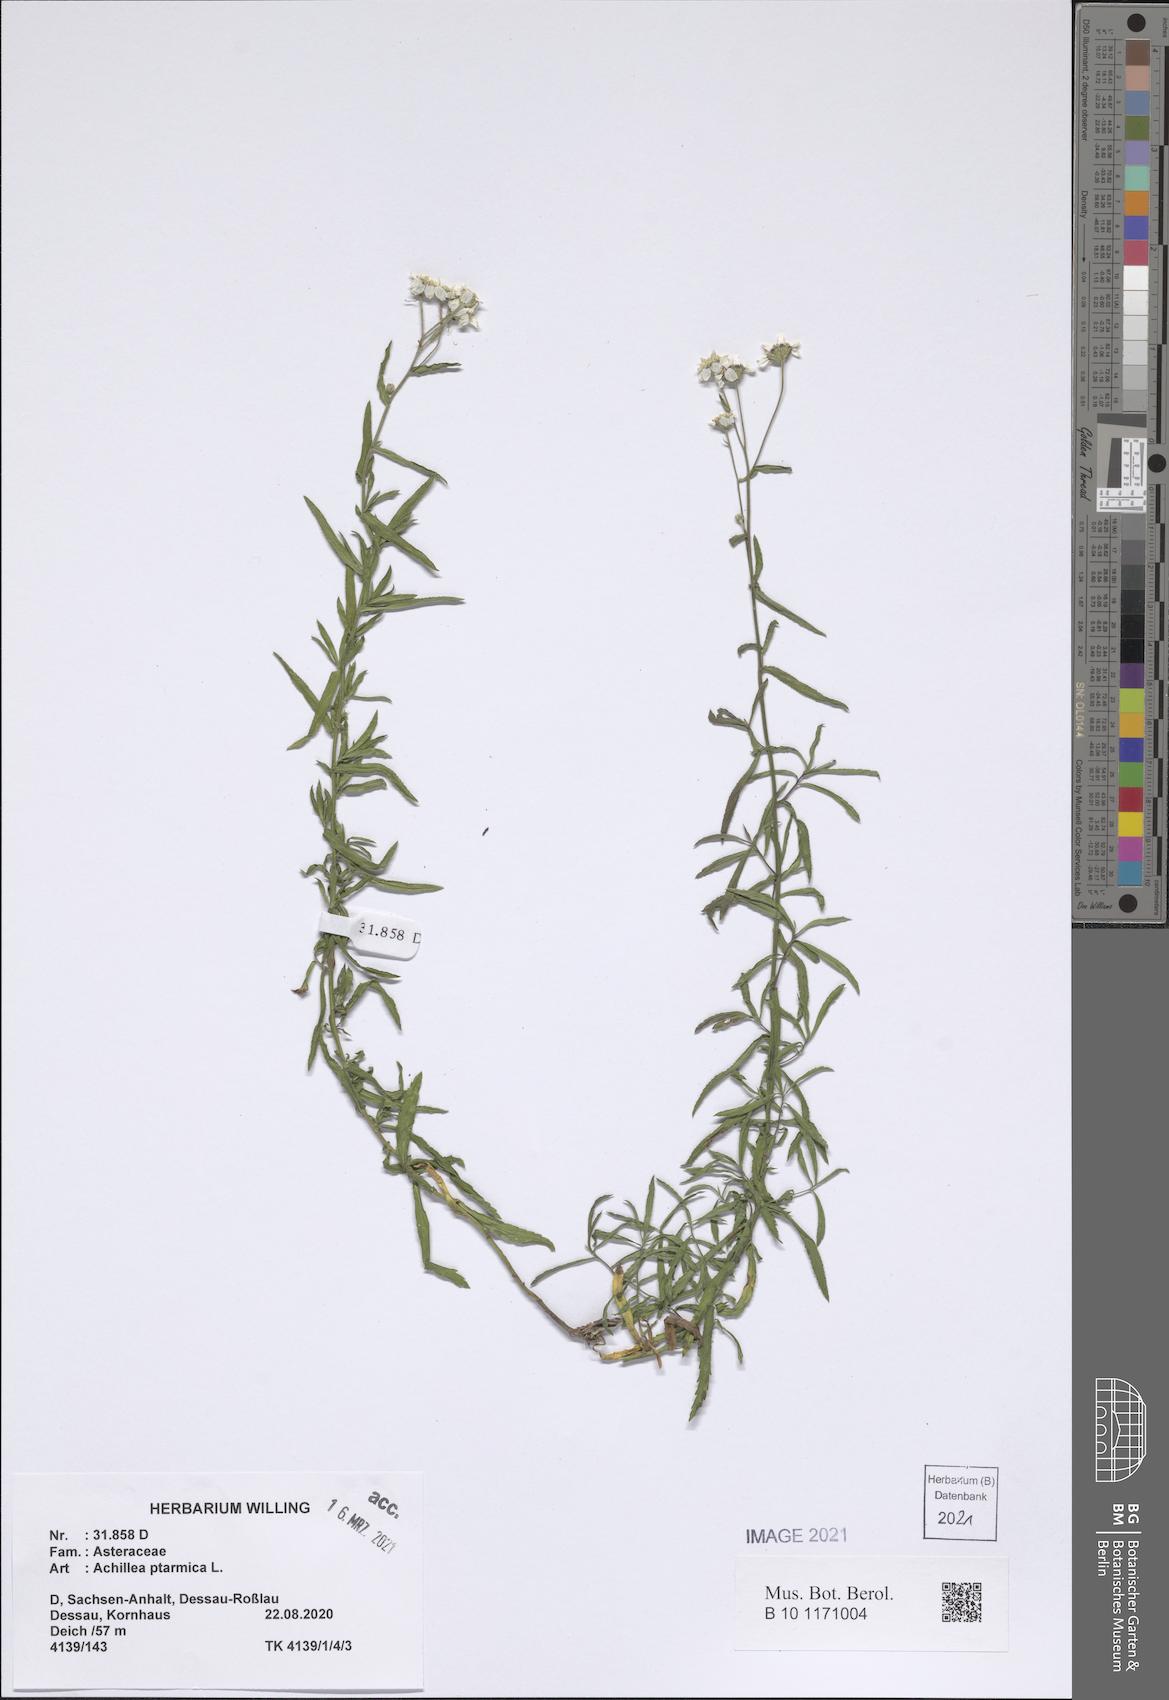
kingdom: Plantae
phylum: Tracheophyta
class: Magnoliopsida
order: Asterales
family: Asteraceae
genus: Achillea
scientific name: Achillea ptarmica
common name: Sneezeweed
